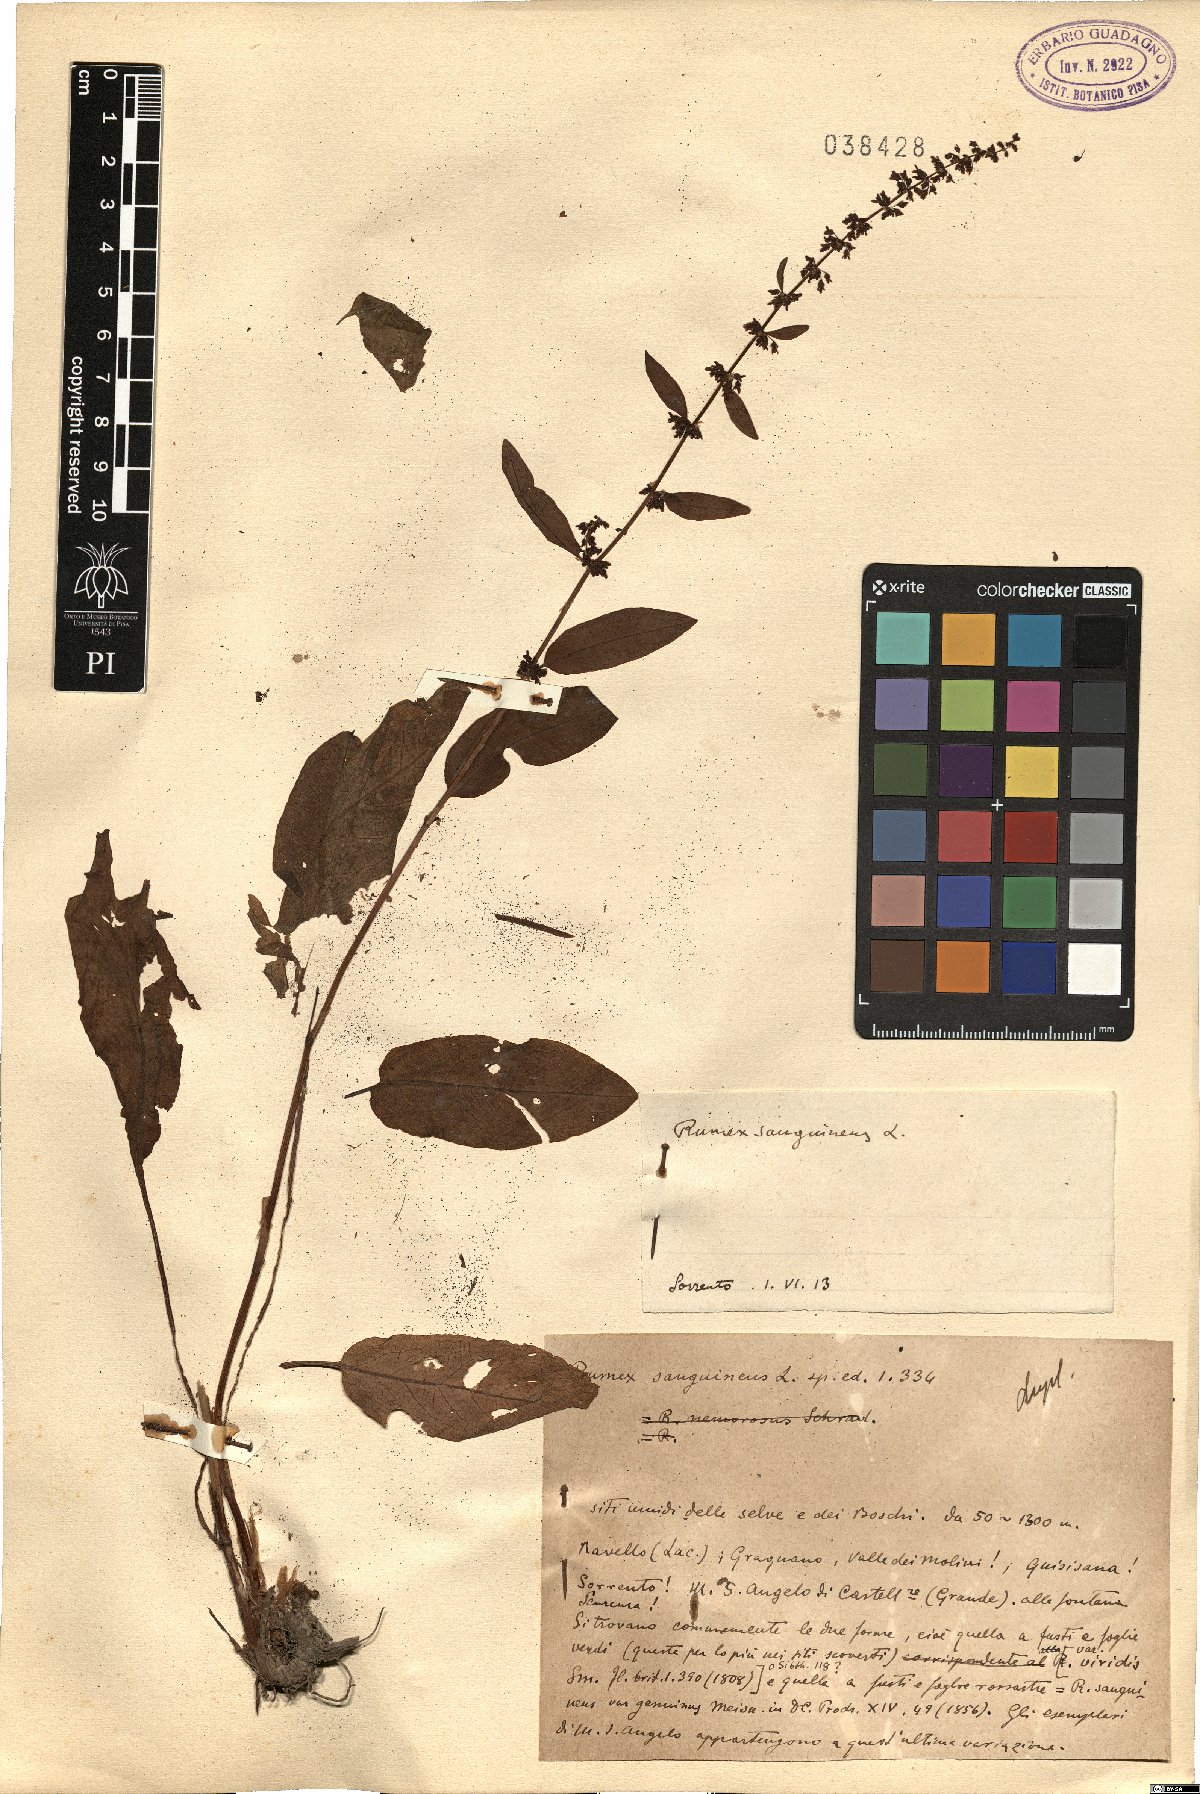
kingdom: Plantae
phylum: Tracheophyta
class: Magnoliopsida
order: Caryophyllales
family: Polygonaceae
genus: Rumex
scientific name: Rumex sanguineus
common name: Wood dock
